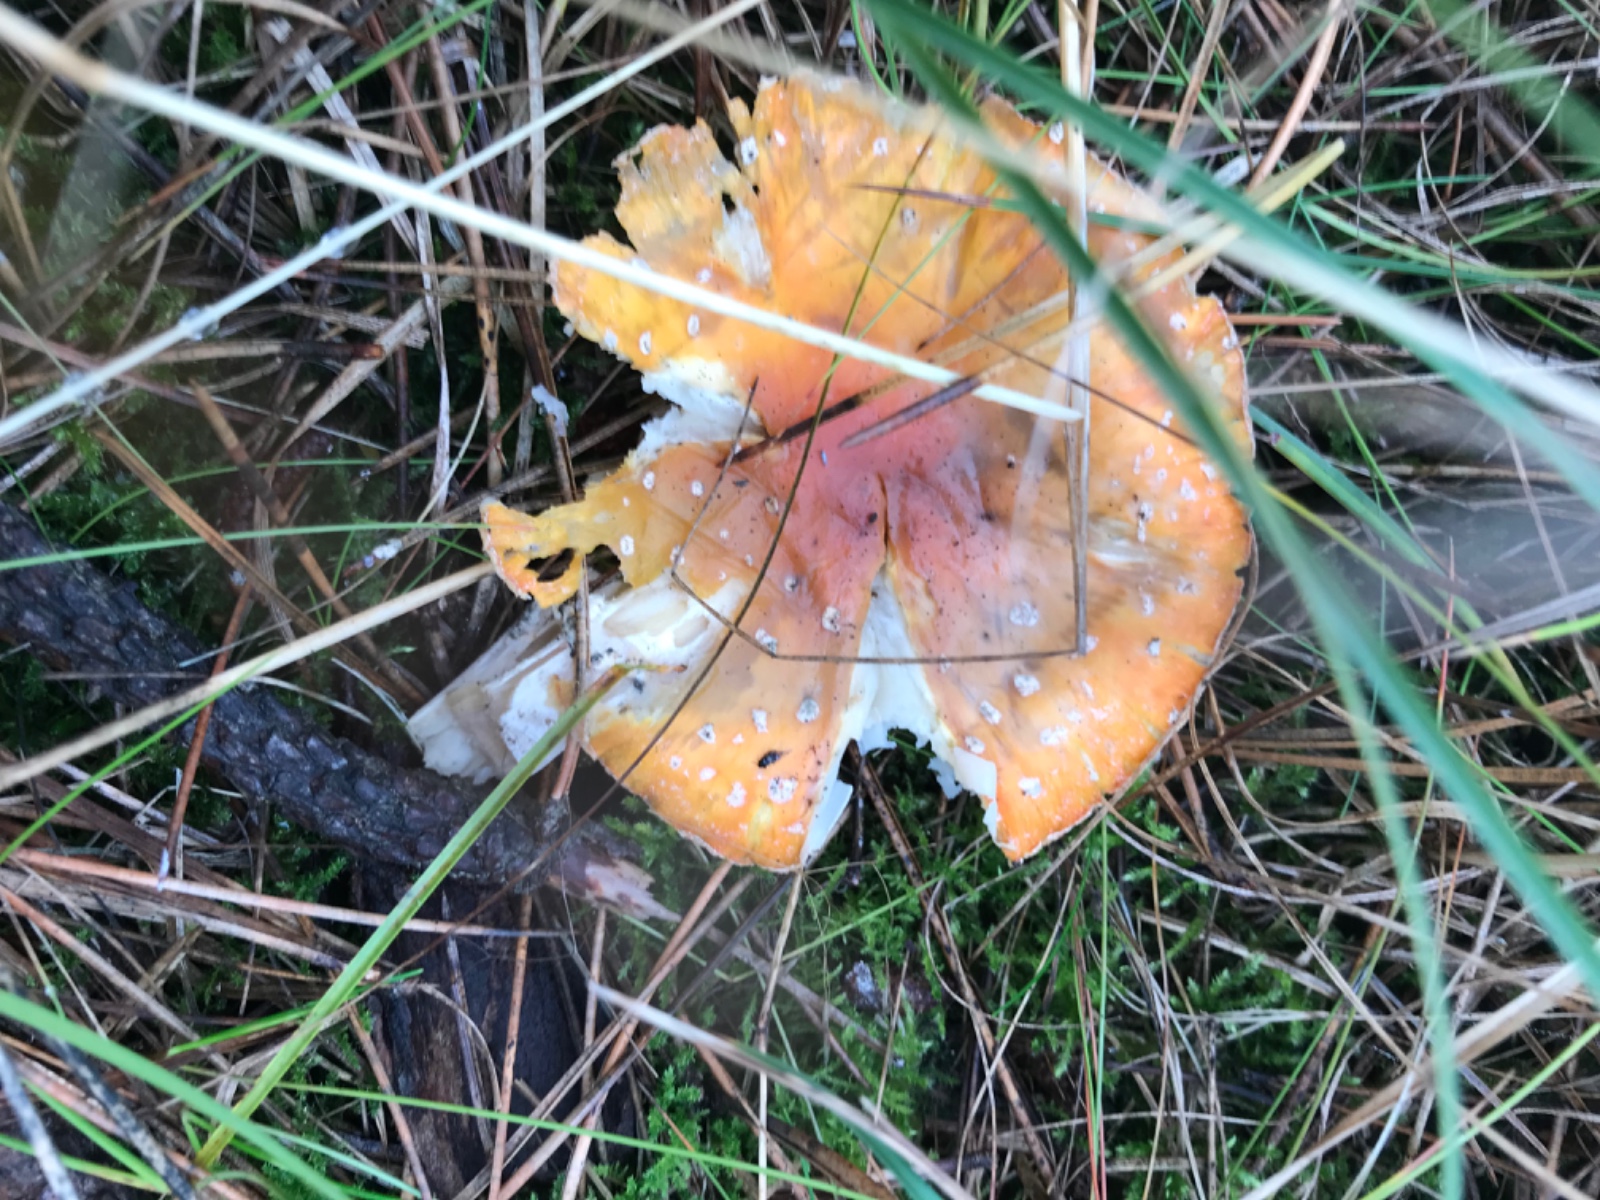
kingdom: Fungi
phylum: Basidiomycota
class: Agaricomycetes
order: Agaricales
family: Amanitaceae
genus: Amanita
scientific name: Amanita muscaria
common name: rød fluesvamp
